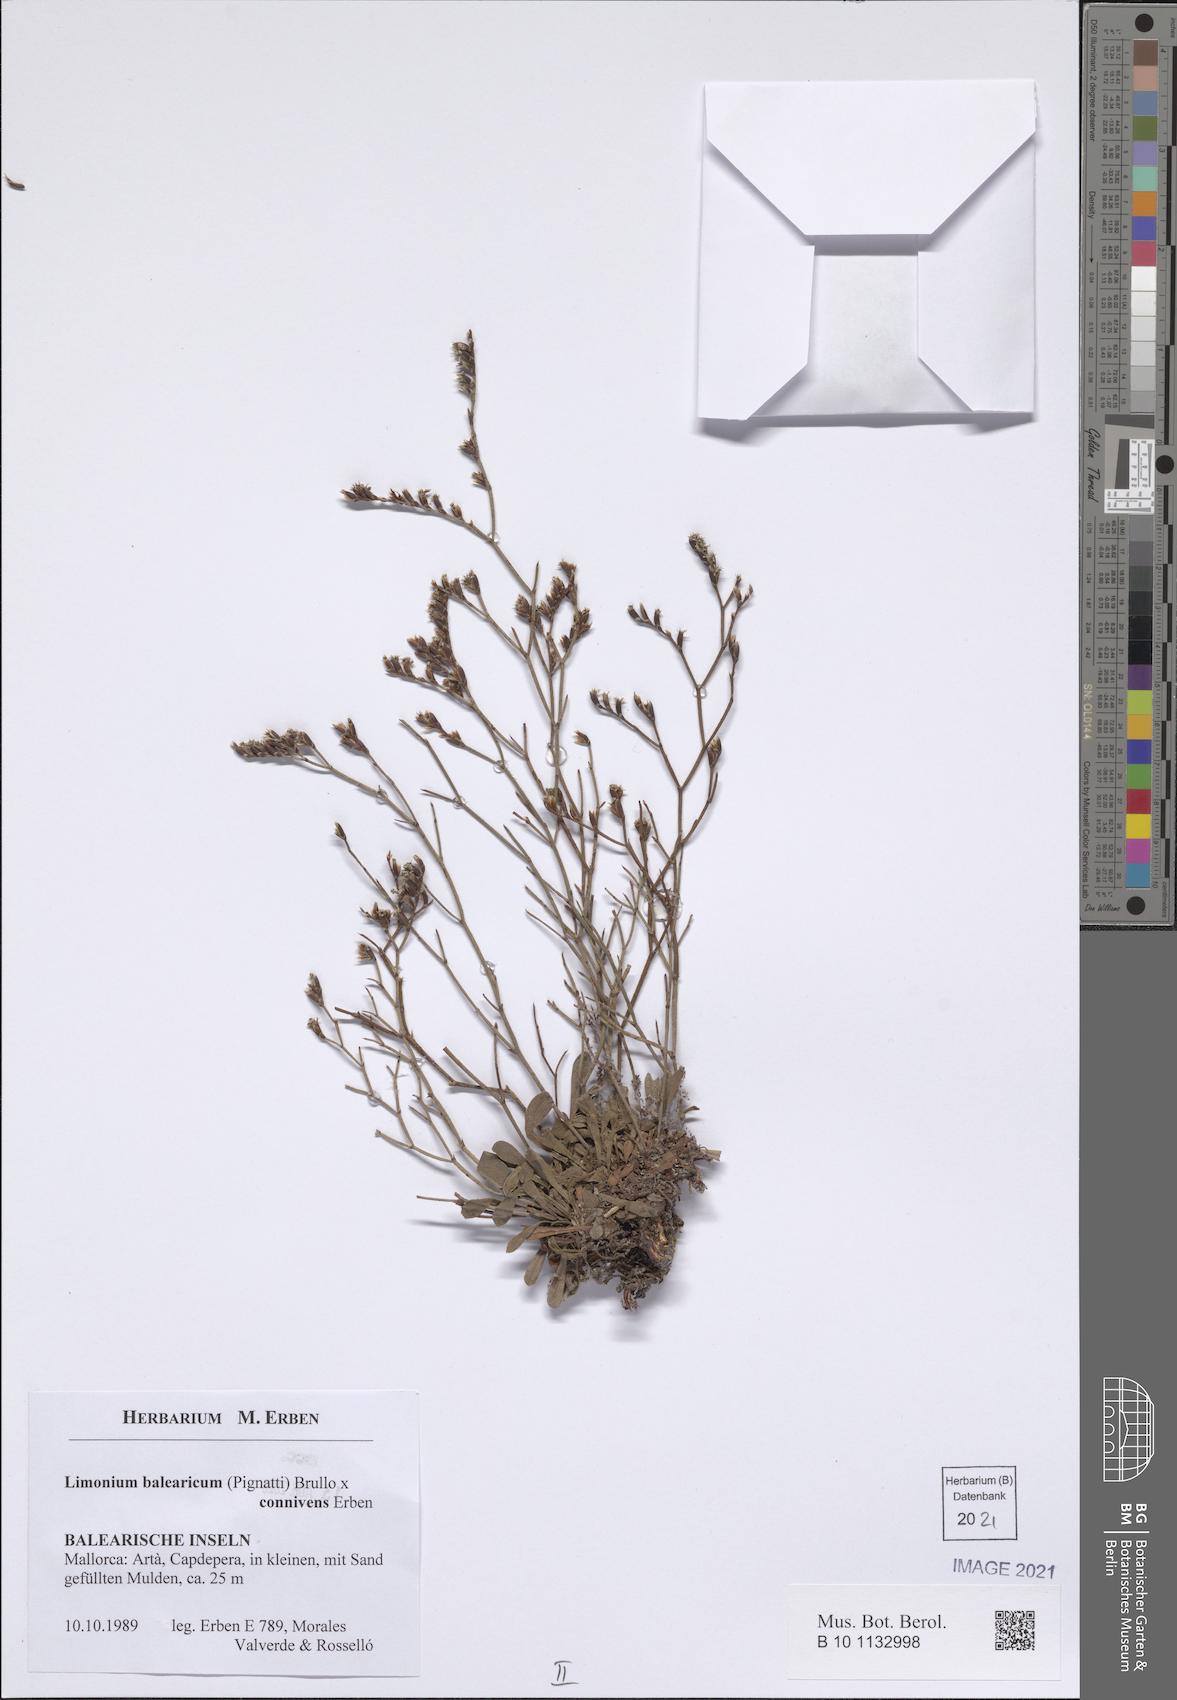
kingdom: Plantae
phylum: Tracheophyta
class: Magnoliopsida
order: Caryophyllales
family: Plumbaginaceae
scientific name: Plumbaginaceae
